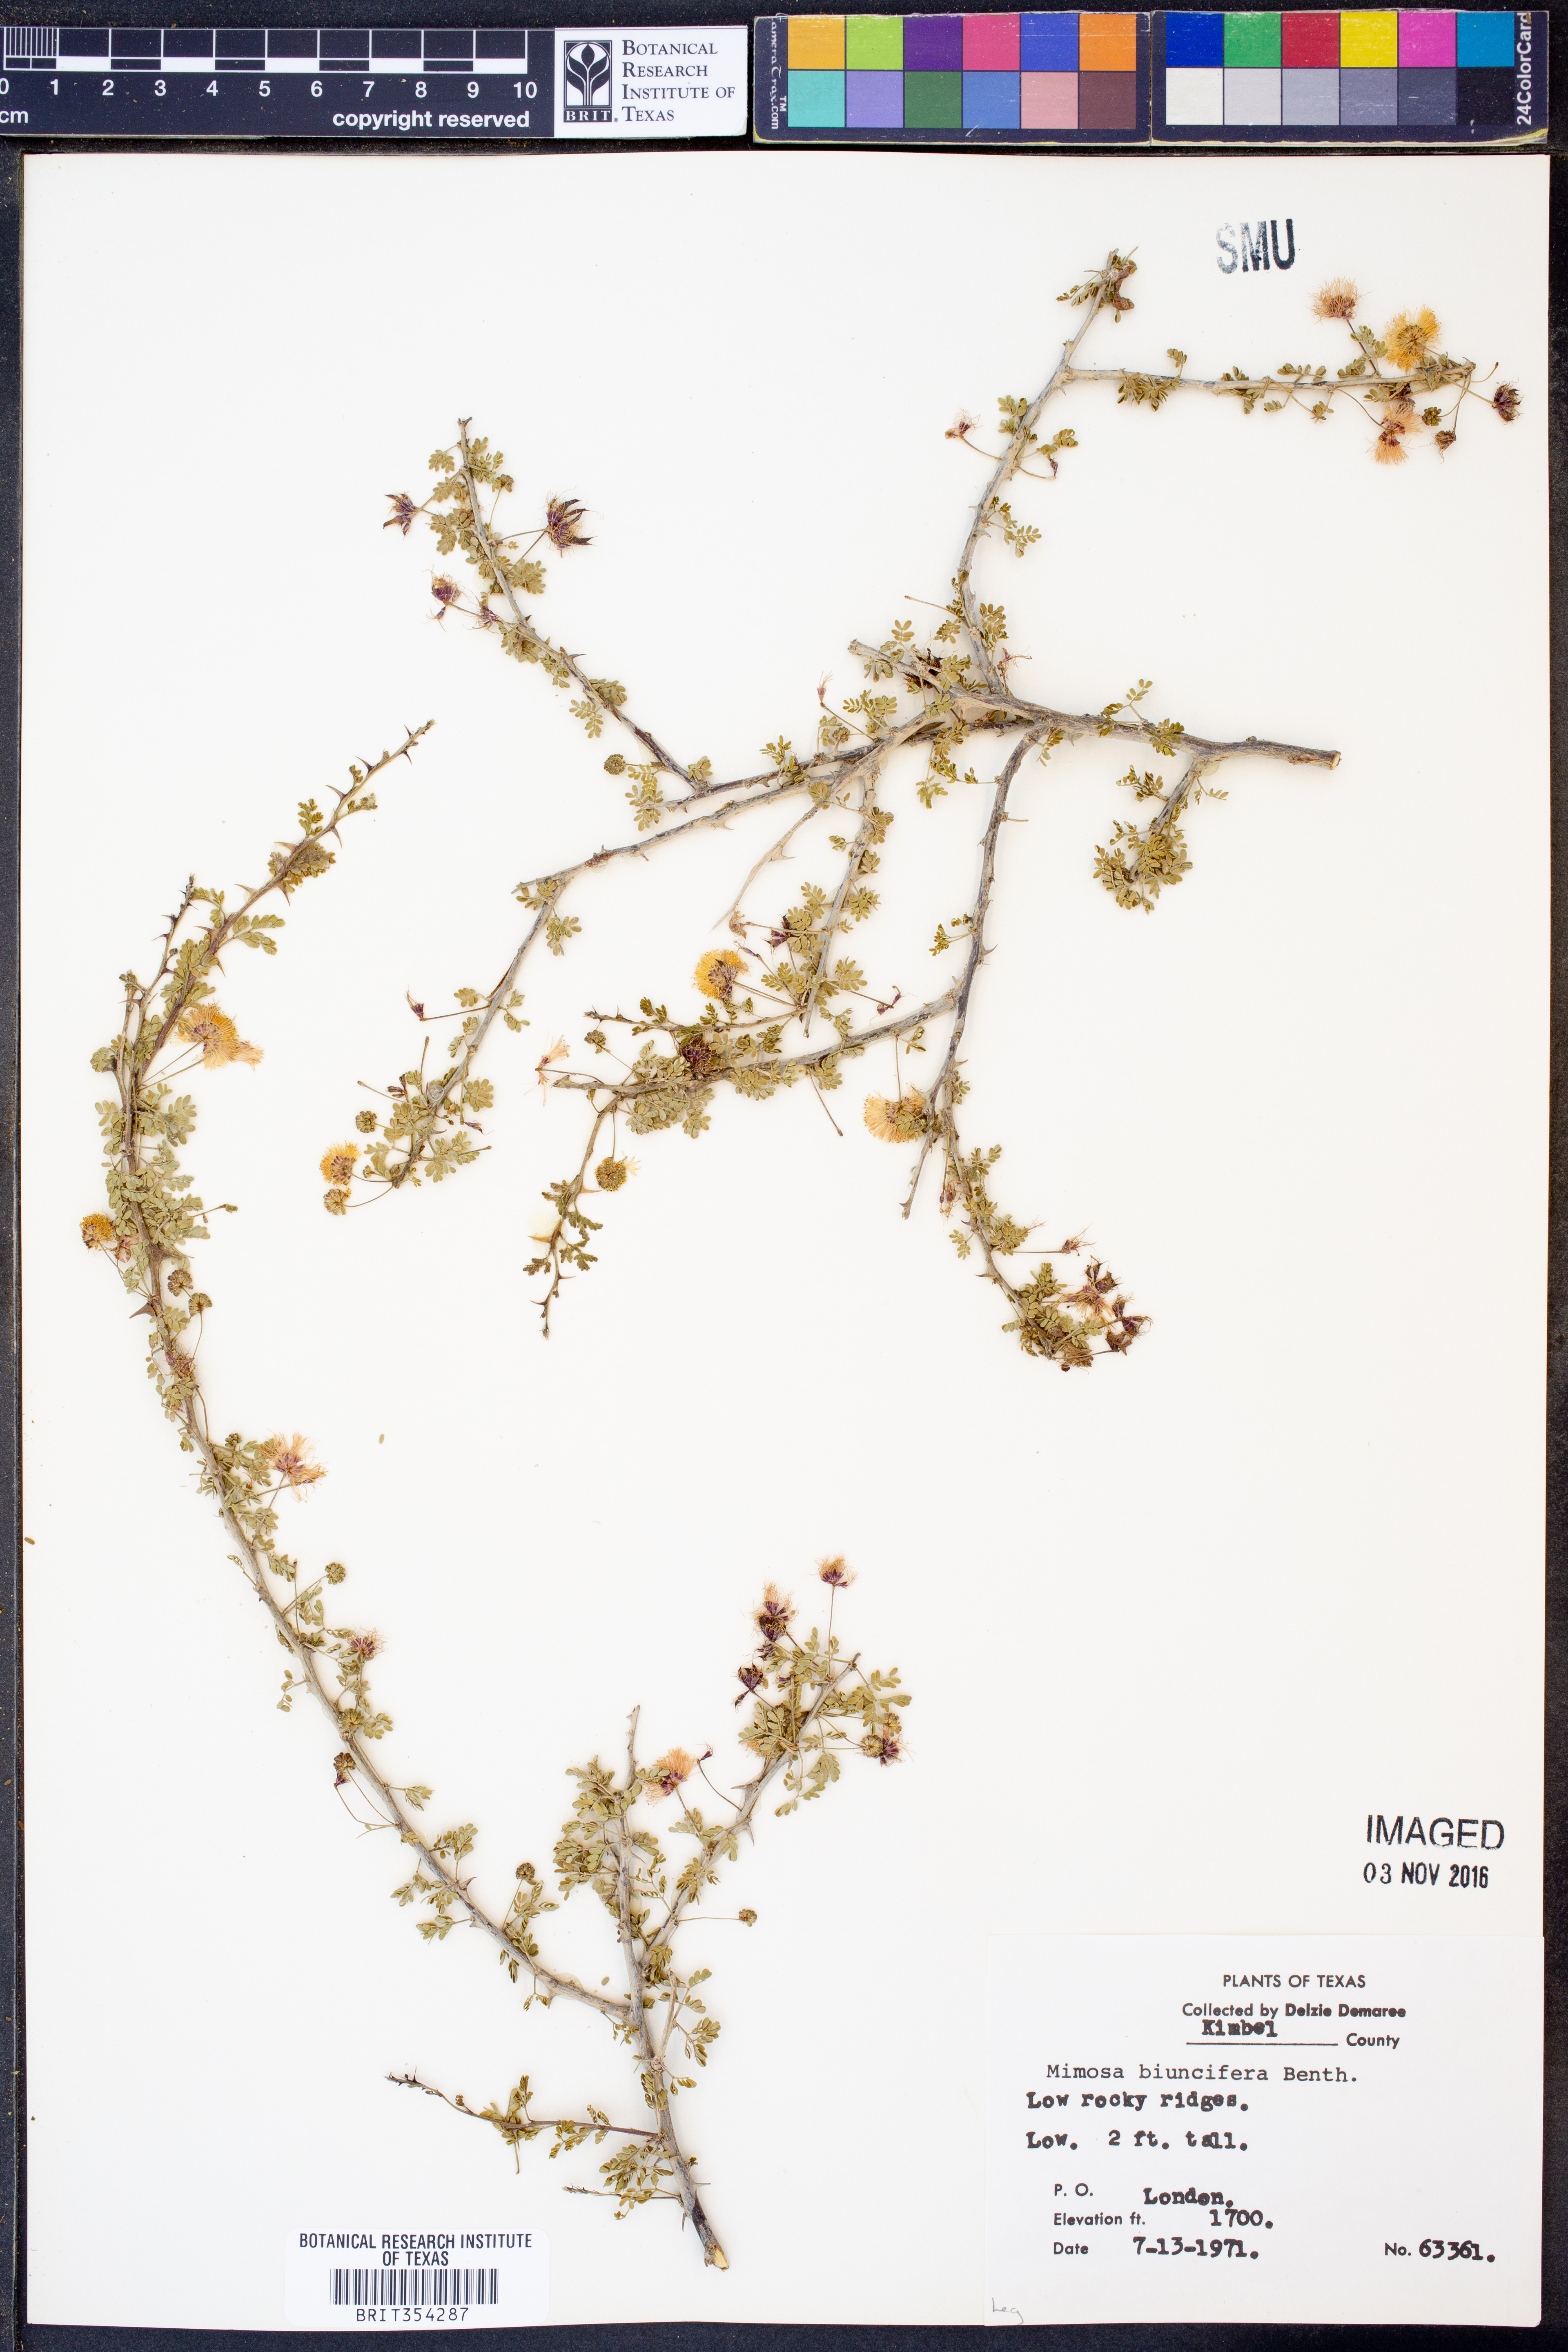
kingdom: Plantae
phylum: Tracheophyta
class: Magnoliopsida
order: Fabales
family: Fabaceae
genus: Mimosa
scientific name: Mimosa biuncifera
